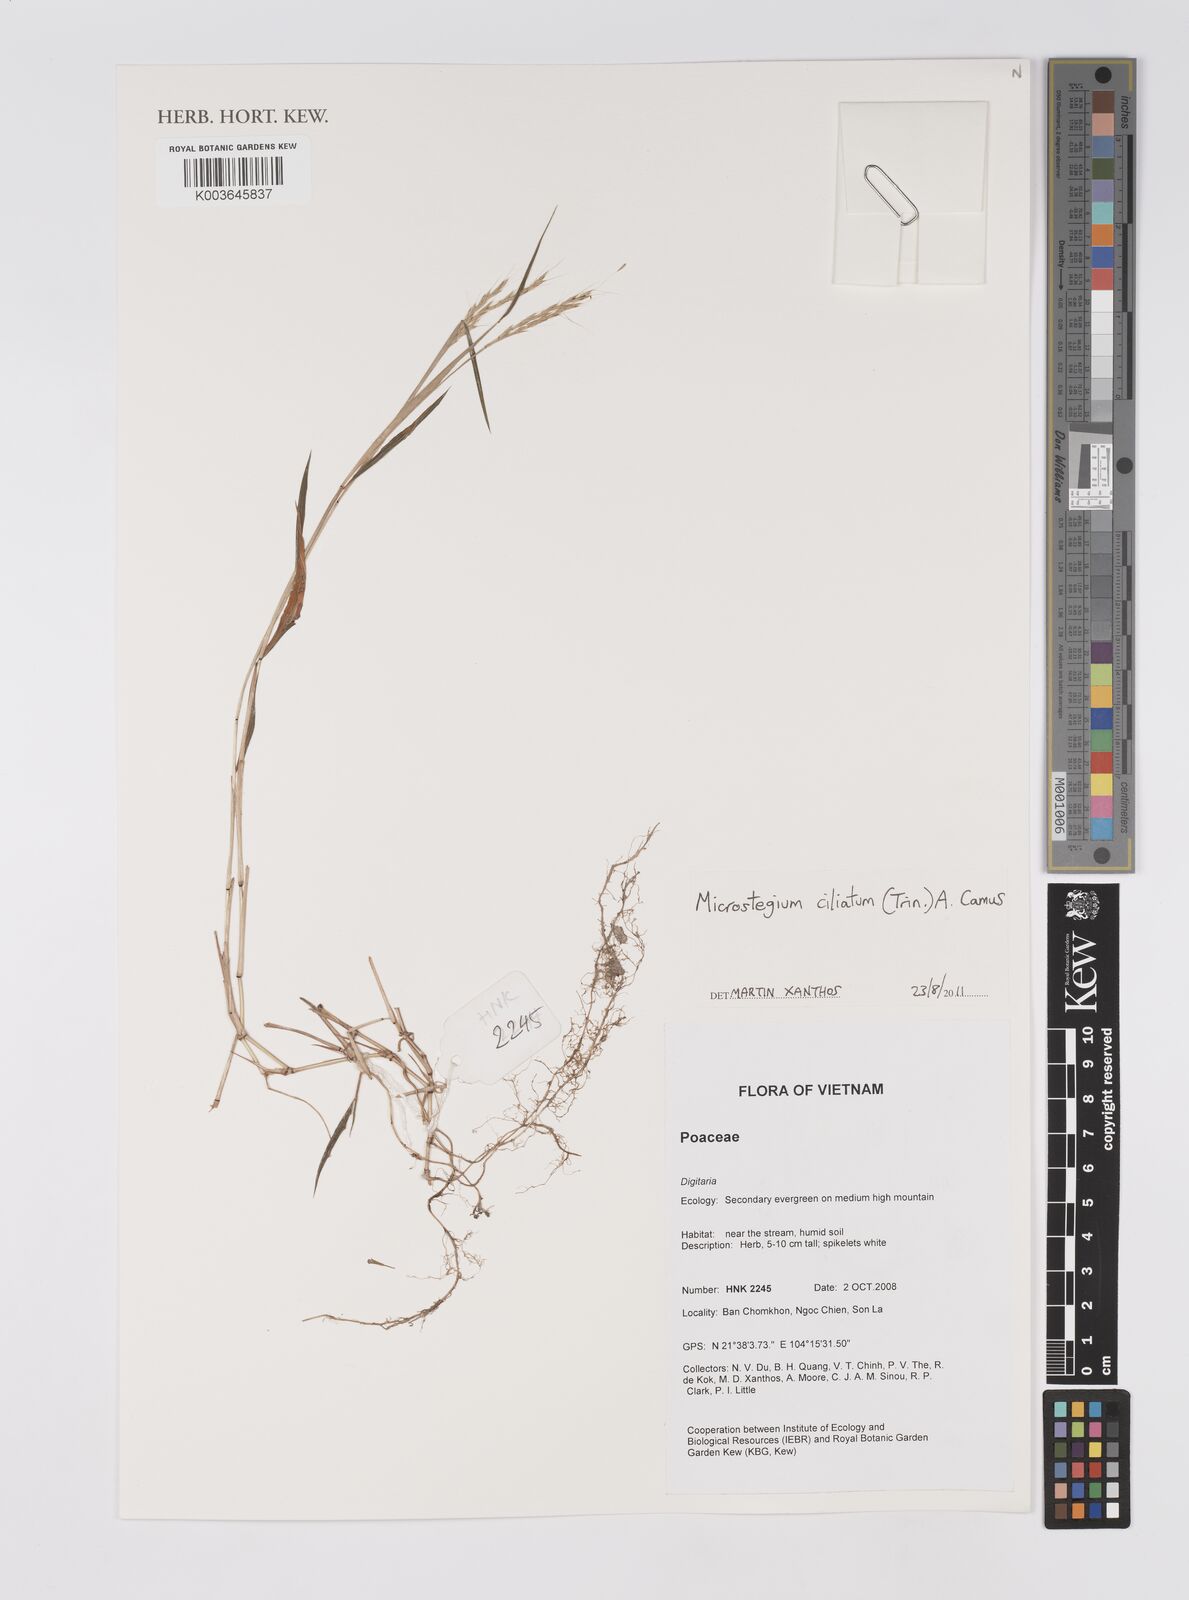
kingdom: Plantae
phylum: Tracheophyta
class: Liliopsida
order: Poales
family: Poaceae
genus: Microstegium
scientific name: Microstegium fasciculatum
